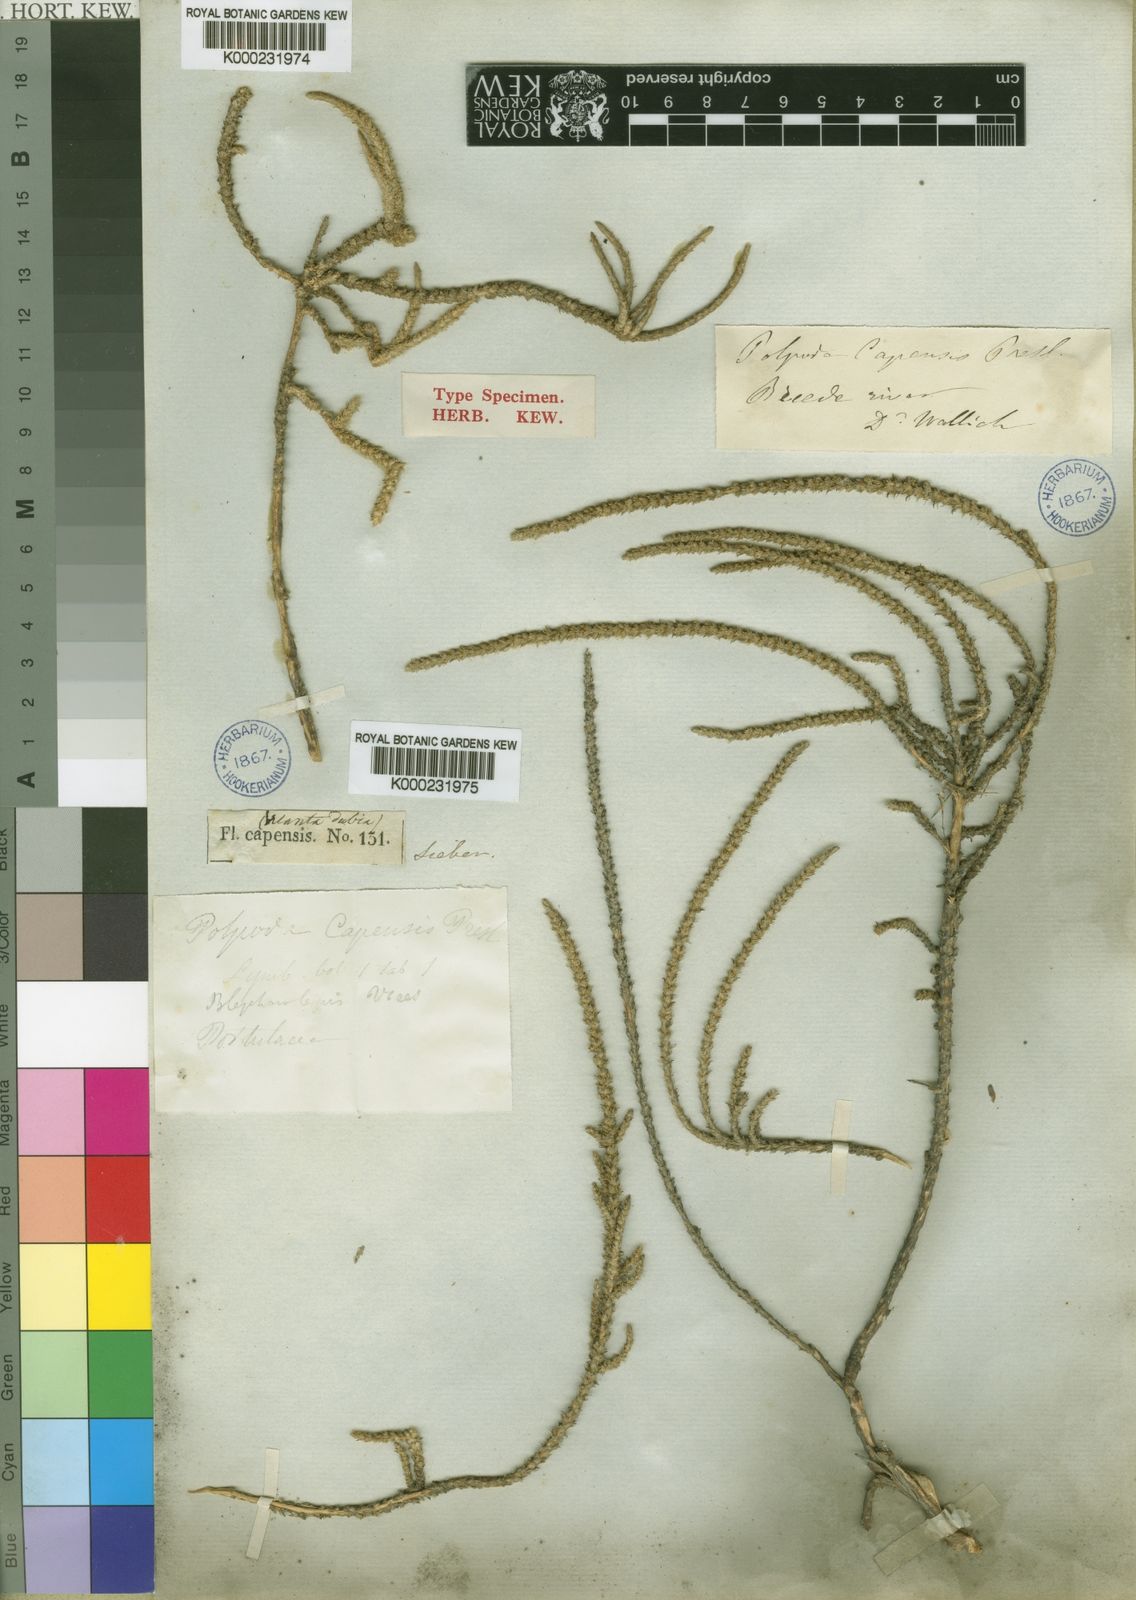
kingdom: Plantae
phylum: Tracheophyta
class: Magnoliopsida
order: Caryophyllales
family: Molluginaceae
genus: Polpoda
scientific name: Polpoda capensis
